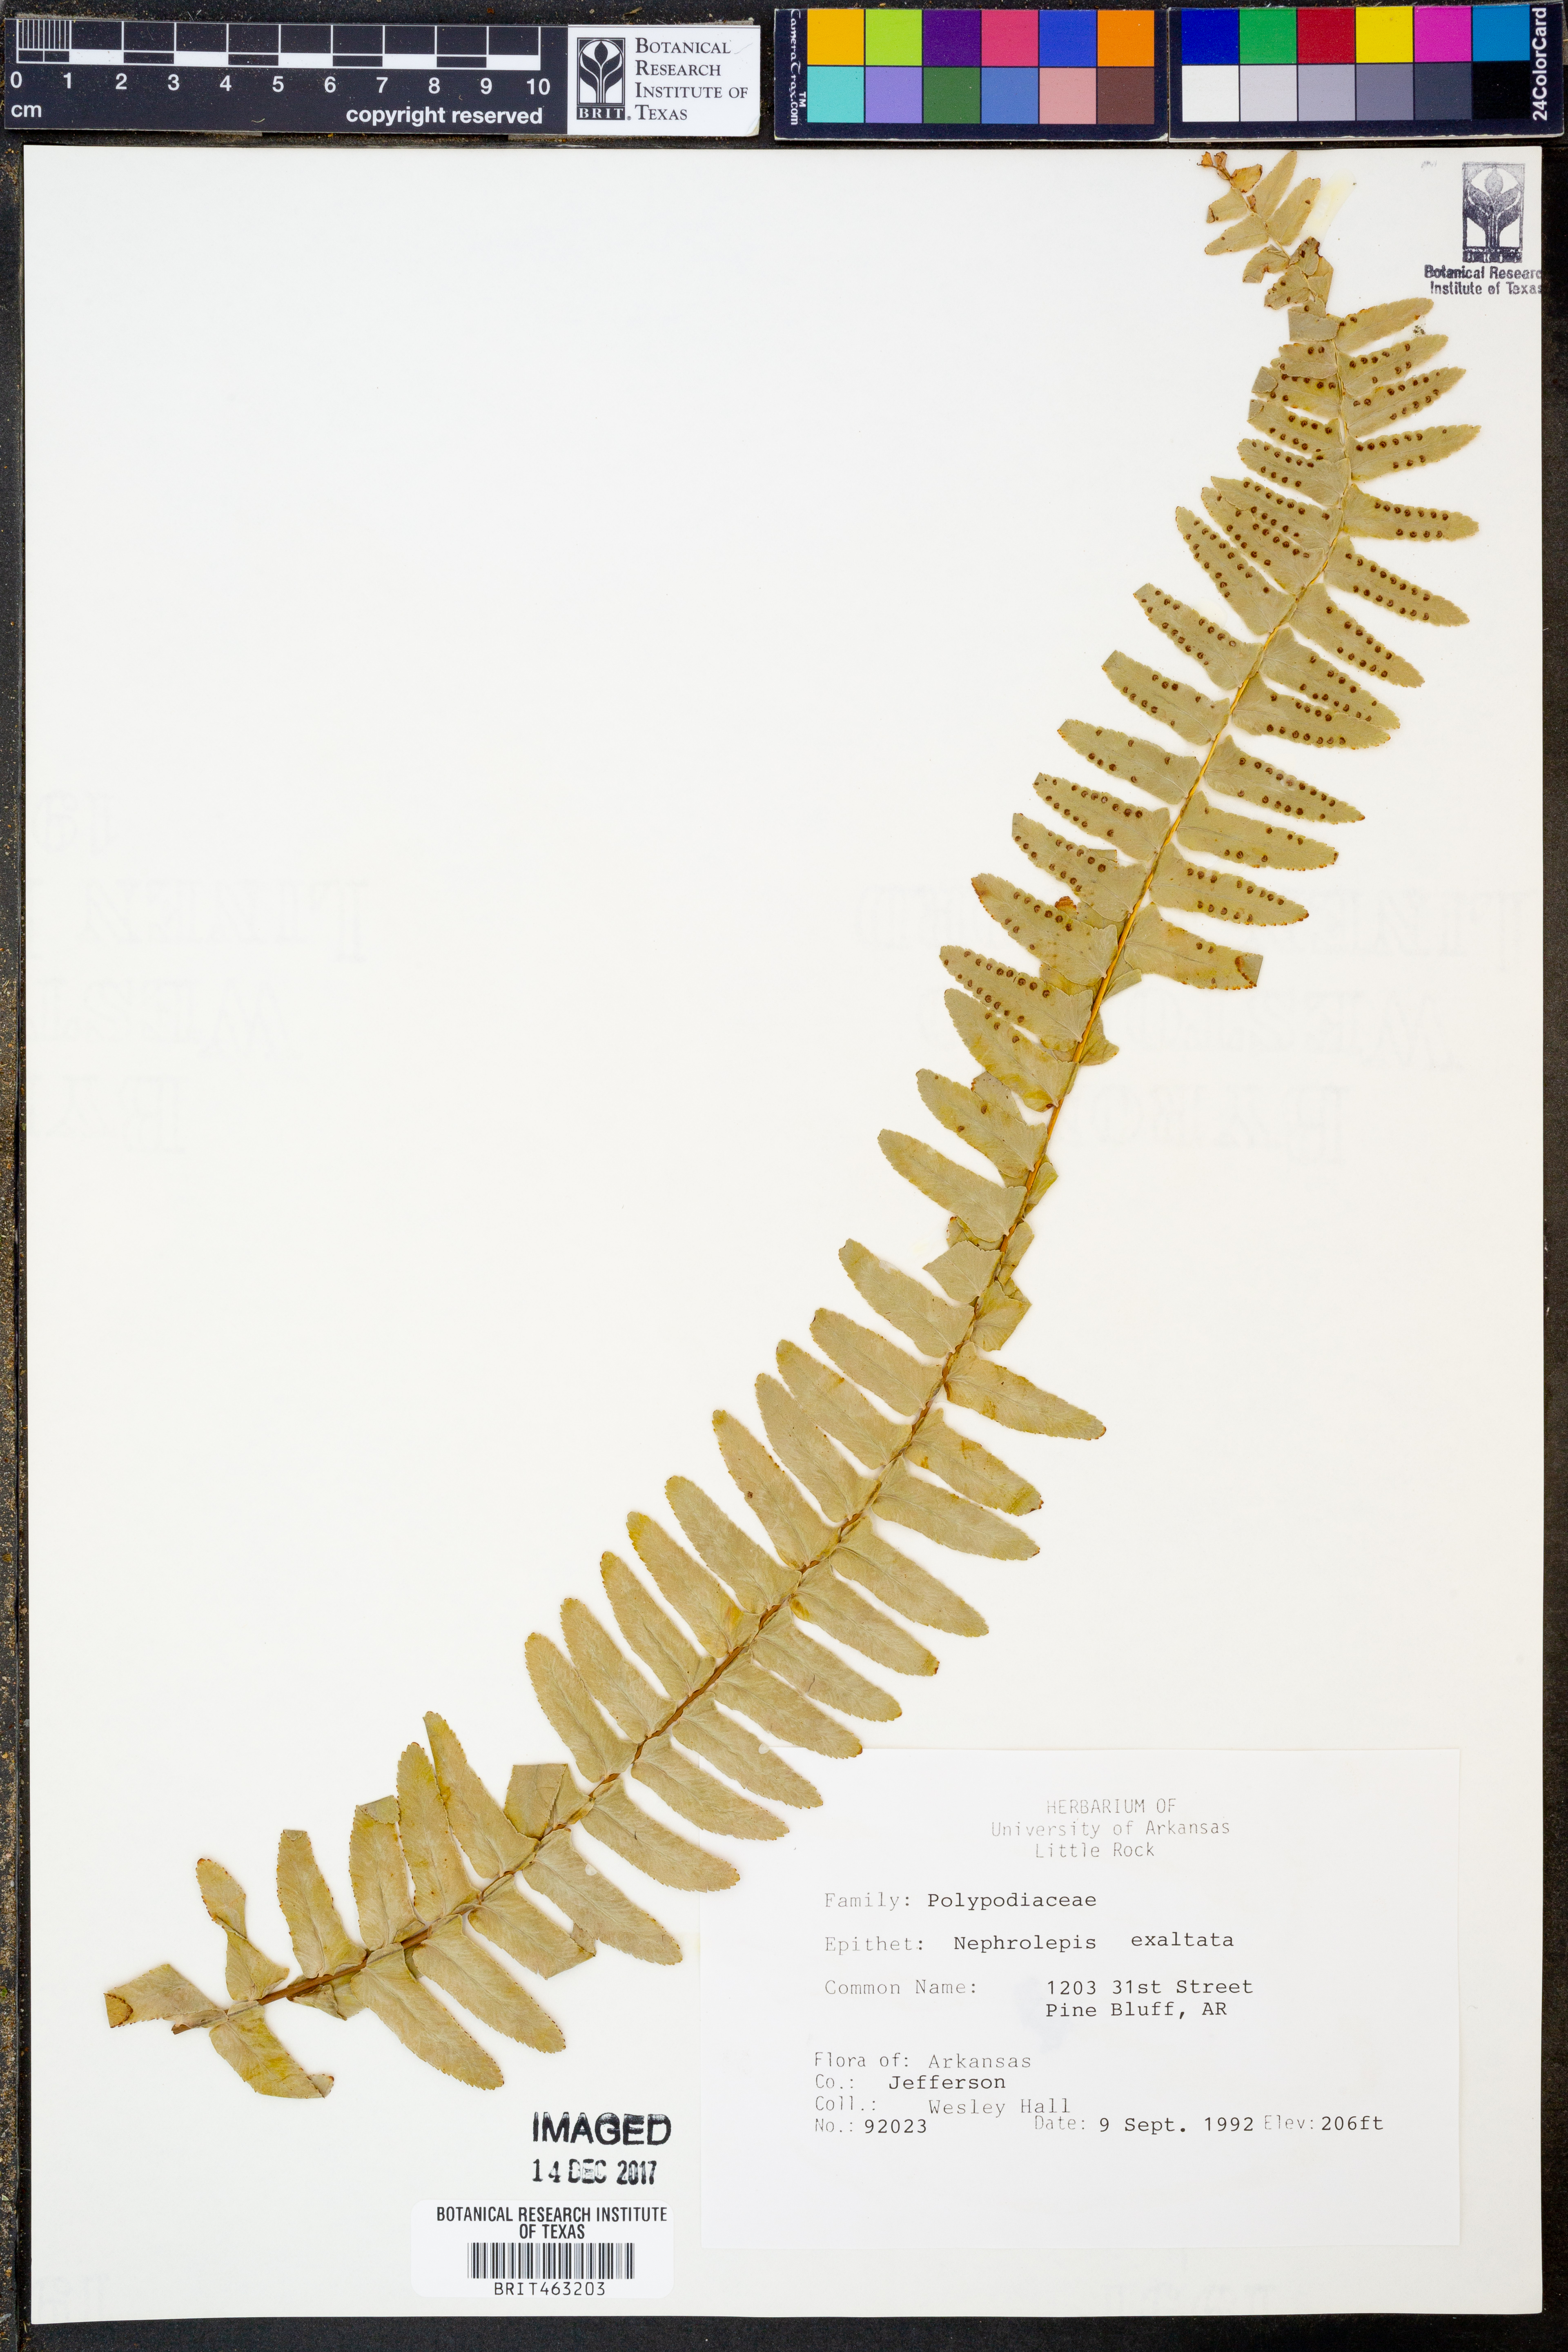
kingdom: Plantae
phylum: Tracheophyta
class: Polypodiopsida
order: Polypodiales
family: Nephrolepidaceae
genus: Nephrolepis
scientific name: Nephrolepis exaltata
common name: Sword fern
